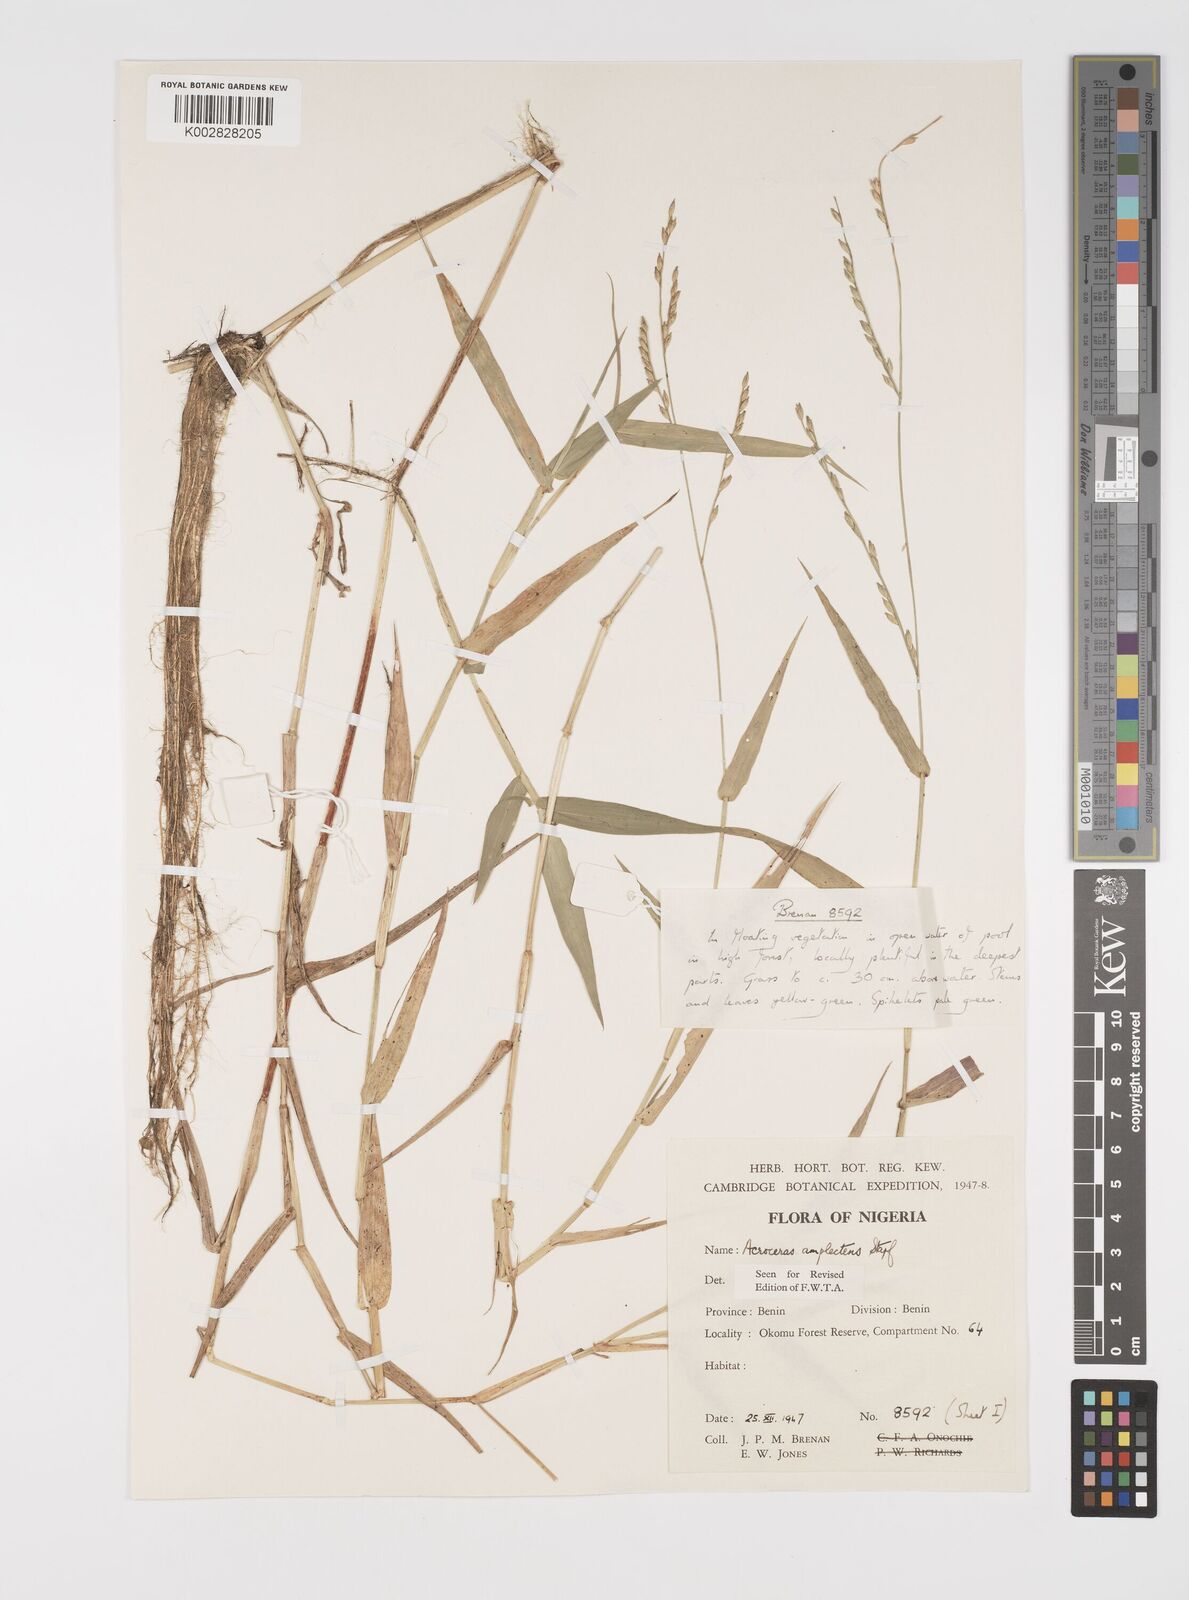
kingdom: Plantae
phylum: Tracheophyta
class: Liliopsida
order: Poales
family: Poaceae
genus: Acroceras
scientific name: Acroceras zizanioides
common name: Oat grass
